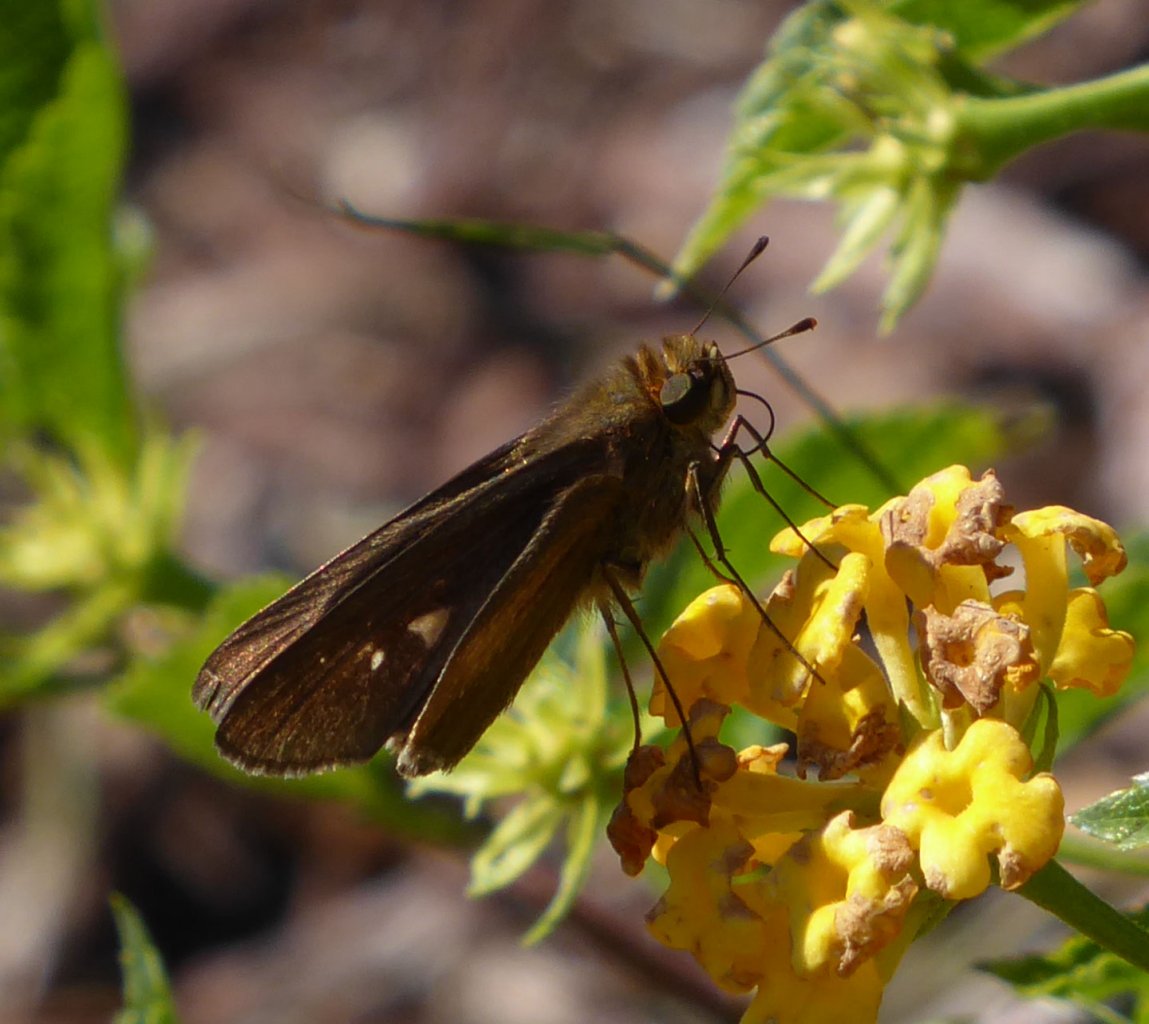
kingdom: Animalia
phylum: Arthropoda
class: Insecta
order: Lepidoptera
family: Hesperiidae
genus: Panoquina
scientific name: Panoquina ocola
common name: Ocola Skipper
